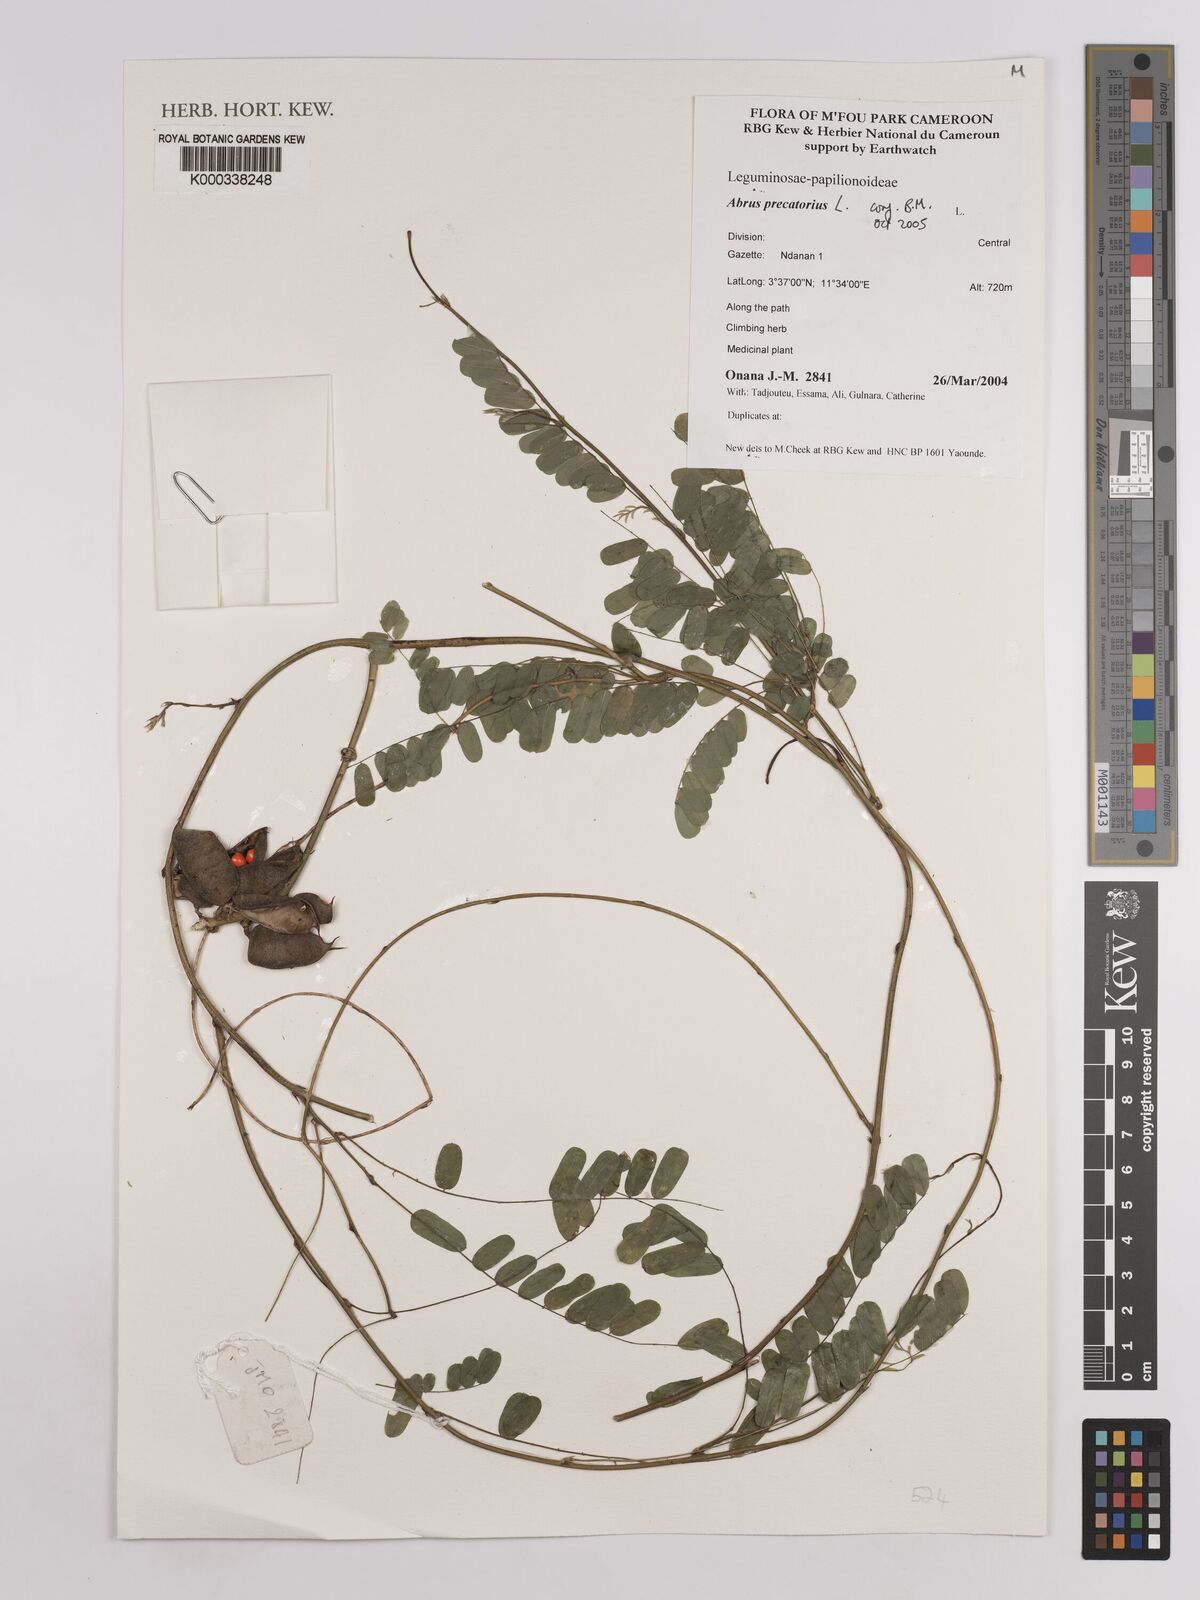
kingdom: Plantae
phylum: Tracheophyta
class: Magnoliopsida
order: Fabales
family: Fabaceae
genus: Abrus
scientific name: Abrus precatorius
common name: Rosarypea
